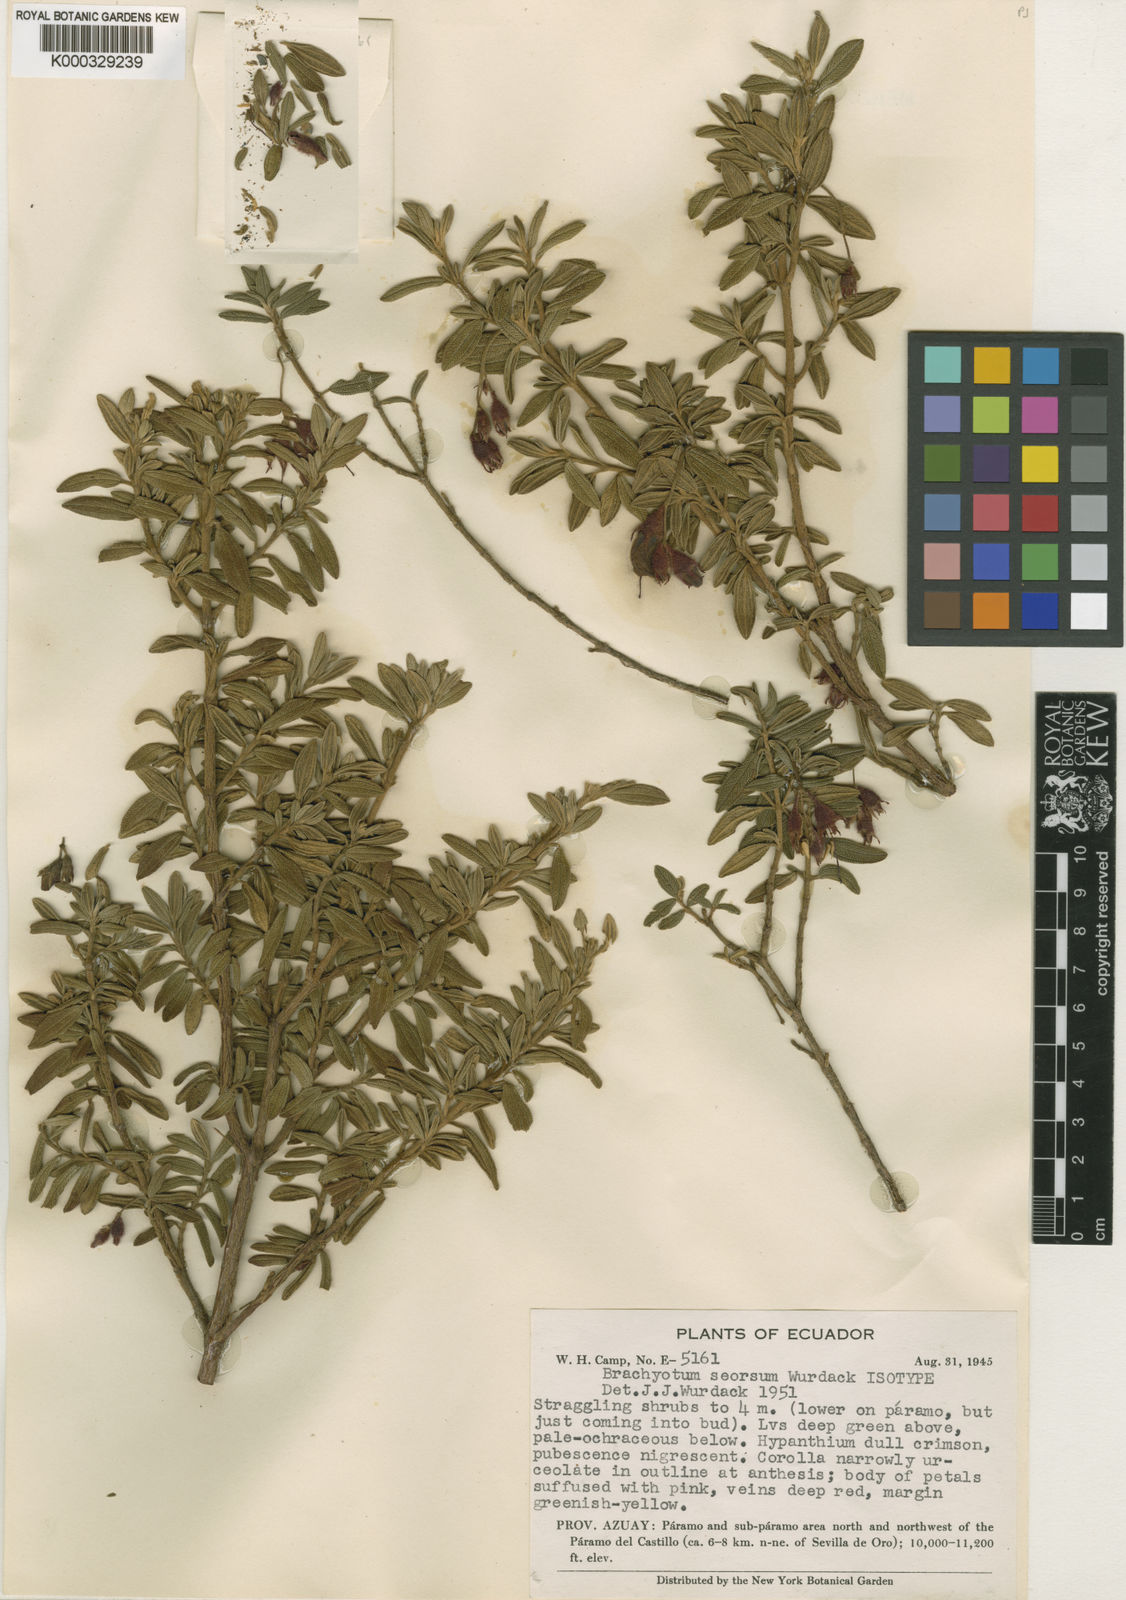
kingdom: Plantae
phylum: Tracheophyta
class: Magnoliopsida
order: Myrtales
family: Melastomataceae
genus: Brachyotum
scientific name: Brachyotum rostratum
